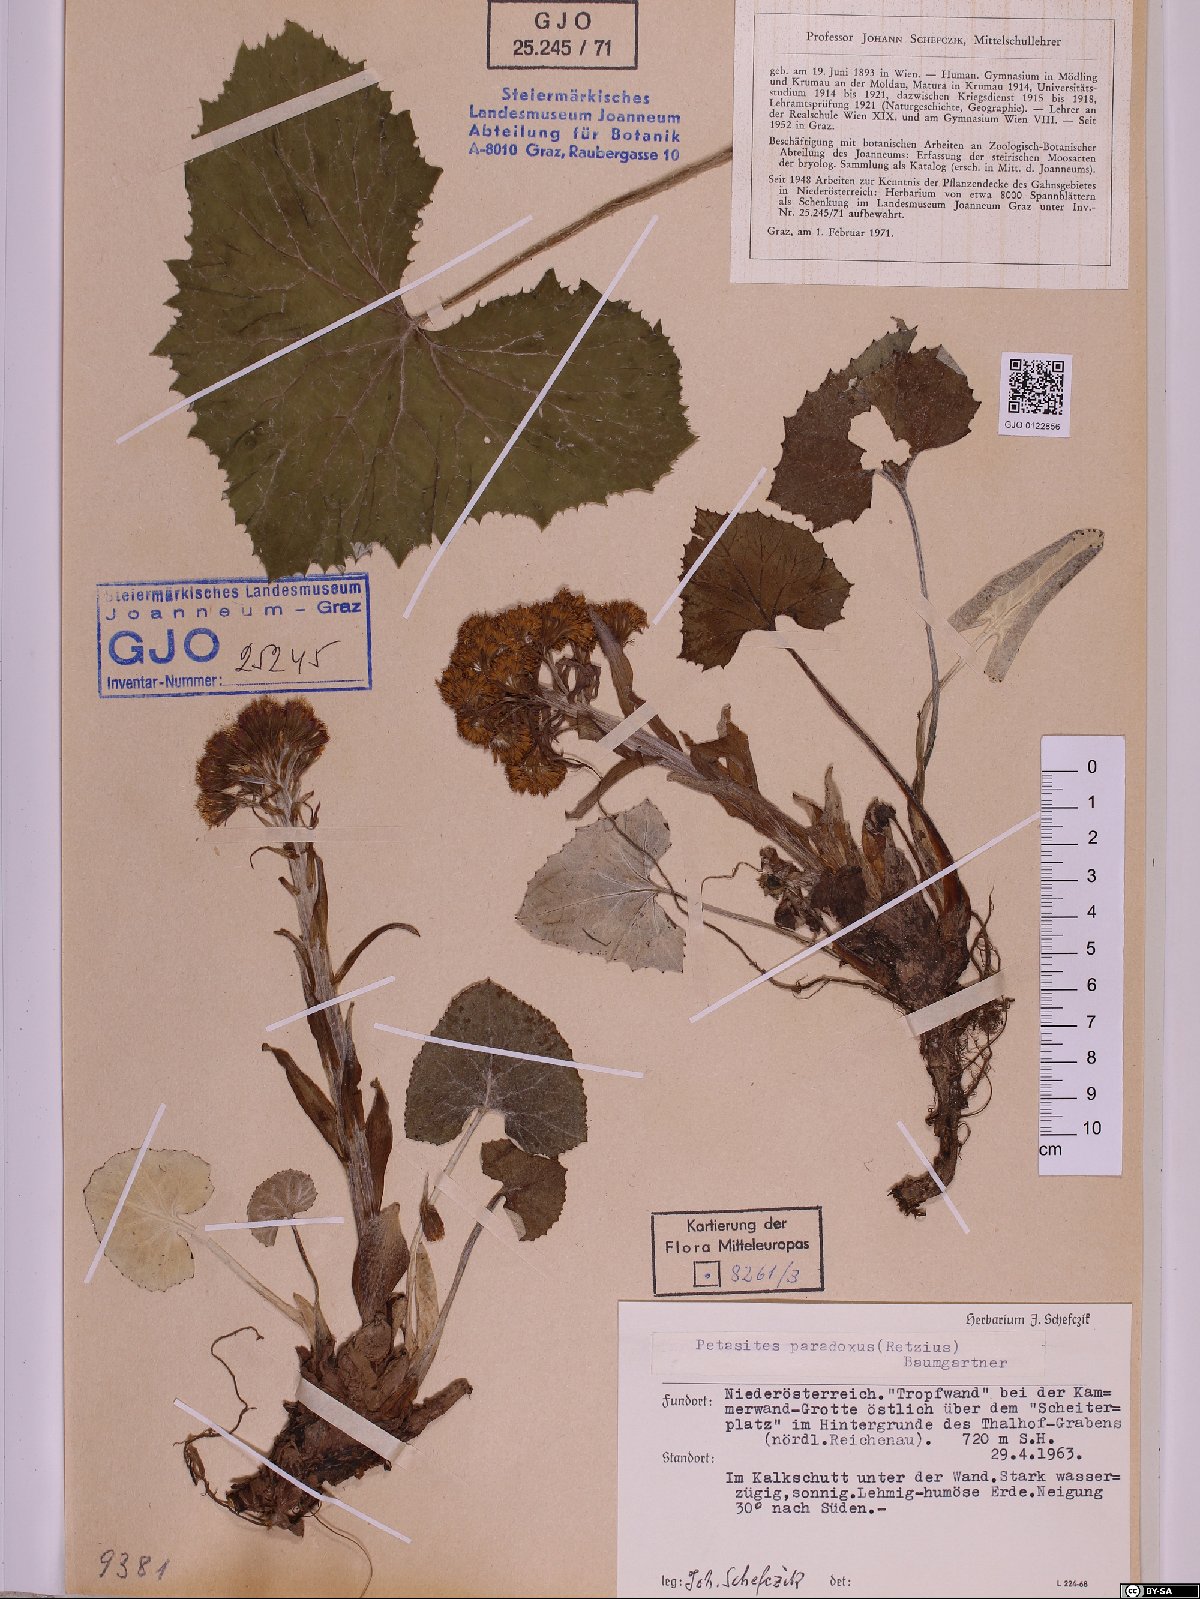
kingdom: Plantae
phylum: Tracheophyta
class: Magnoliopsida
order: Asterales
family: Asteraceae
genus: Petasites
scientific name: Petasites paradoxus
